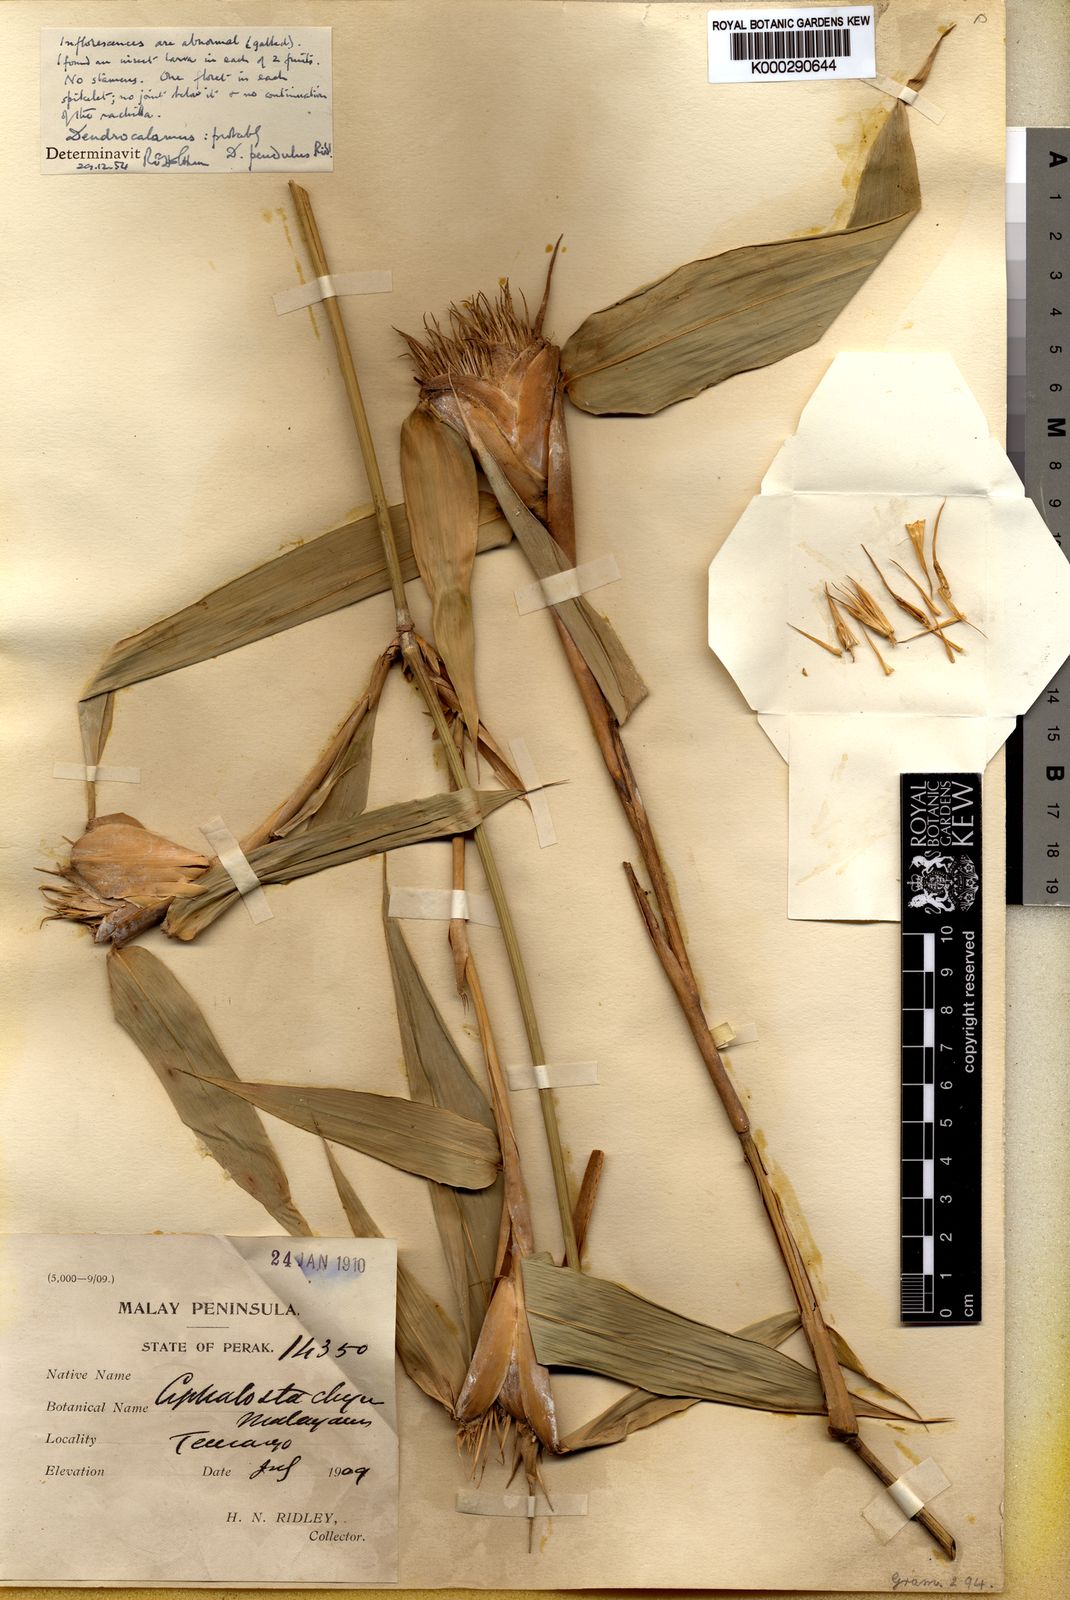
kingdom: Plantae
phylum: Tracheophyta
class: Liliopsida
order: Poales
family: Poaceae
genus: Dendrocalamus
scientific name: Dendrocalamus pendulus
